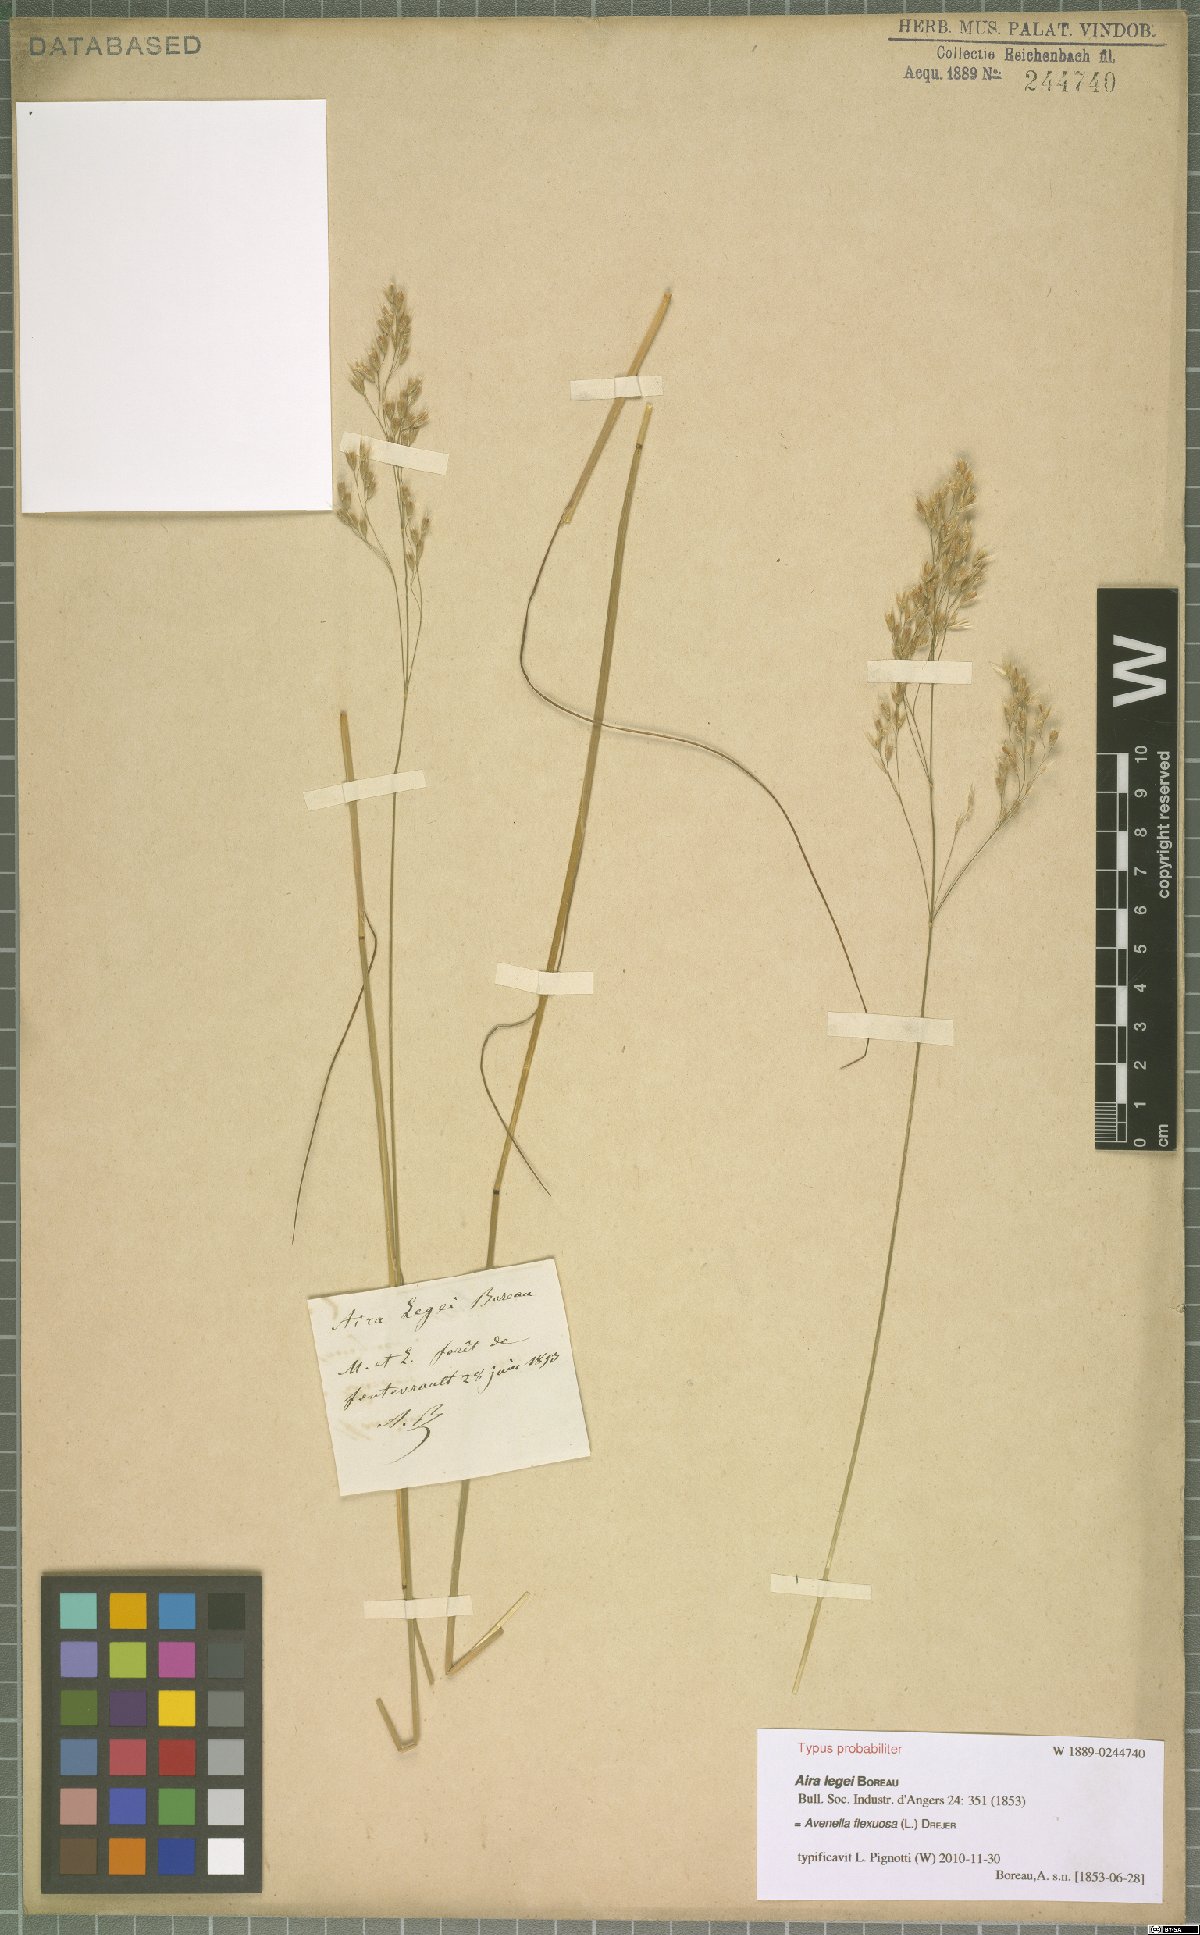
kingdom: Plantae
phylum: Tracheophyta
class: Liliopsida
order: Poales
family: Poaceae
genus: Avenella
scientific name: Avenella flexuosa
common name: Wavy hairgrass
